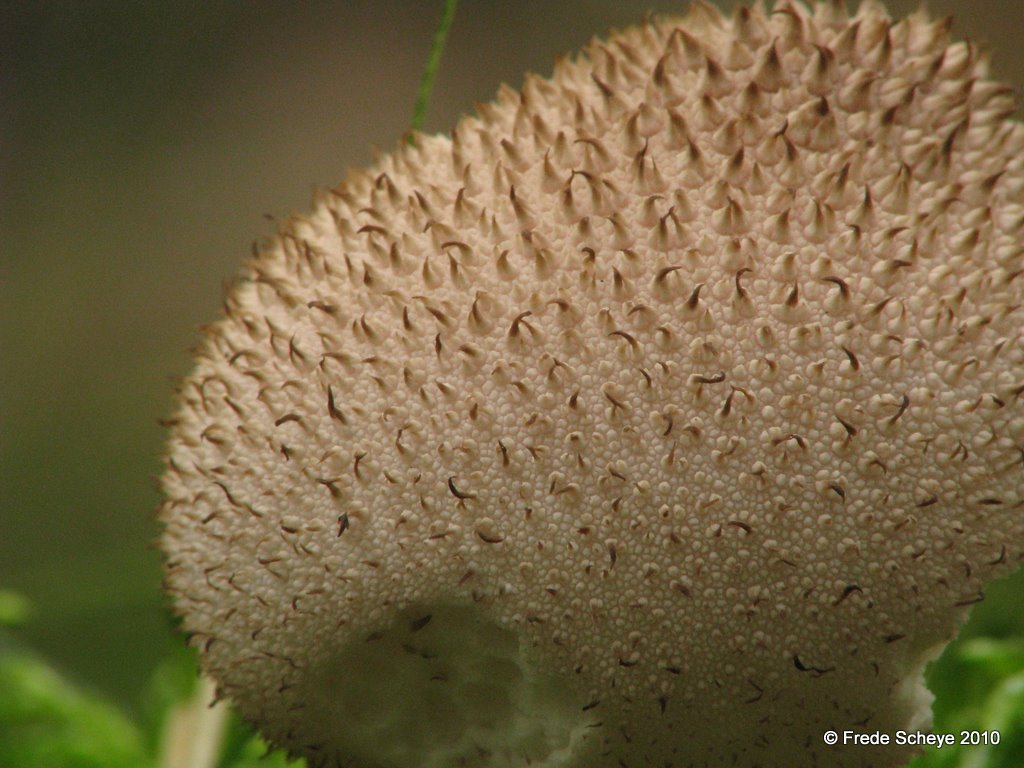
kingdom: Fungi
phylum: Basidiomycota
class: Agaricomycetes
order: Agaricales
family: Lycoperdaceae
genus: Lycoperdon
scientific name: Lycoperdon perlatum
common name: krystal-støvbold
